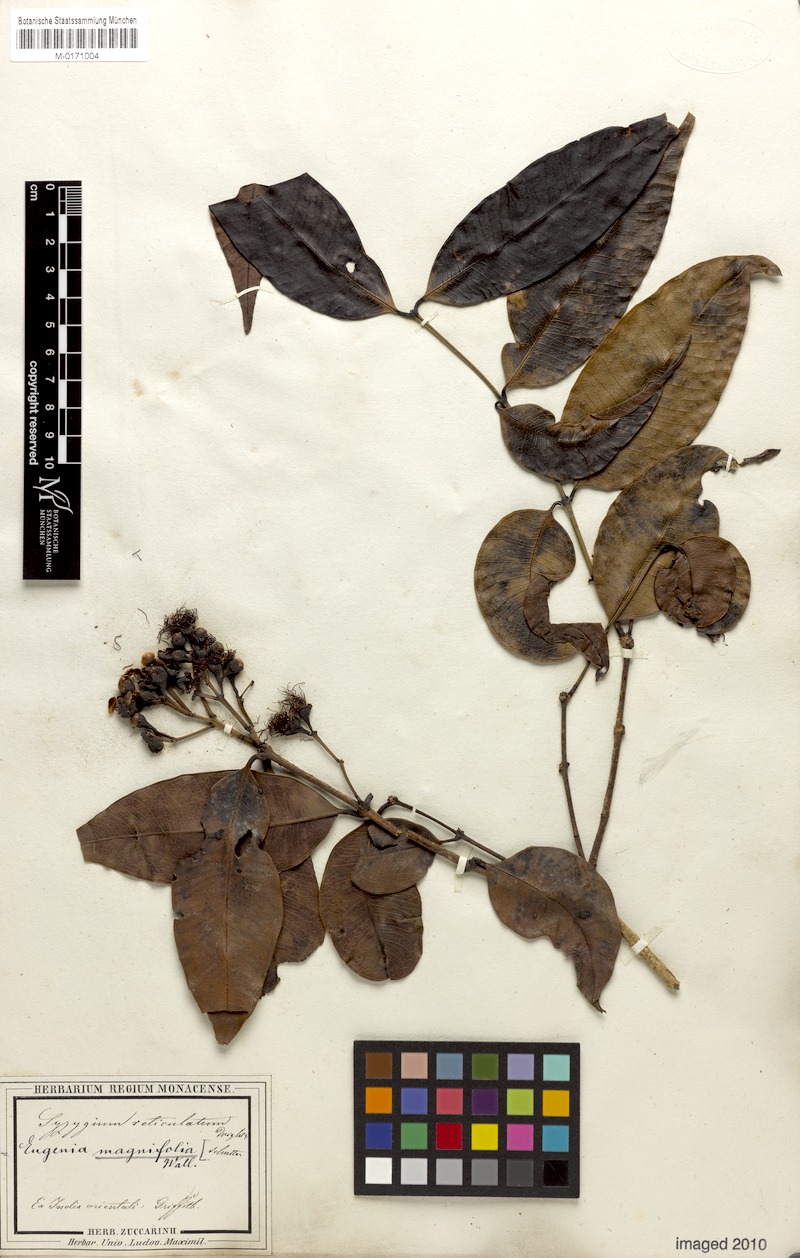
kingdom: Plantae
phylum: Tracheophyta
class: Magnoliopsida
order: Myrtales
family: Myrtaceae
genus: Syzygium
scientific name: Syzygium reticulatum
